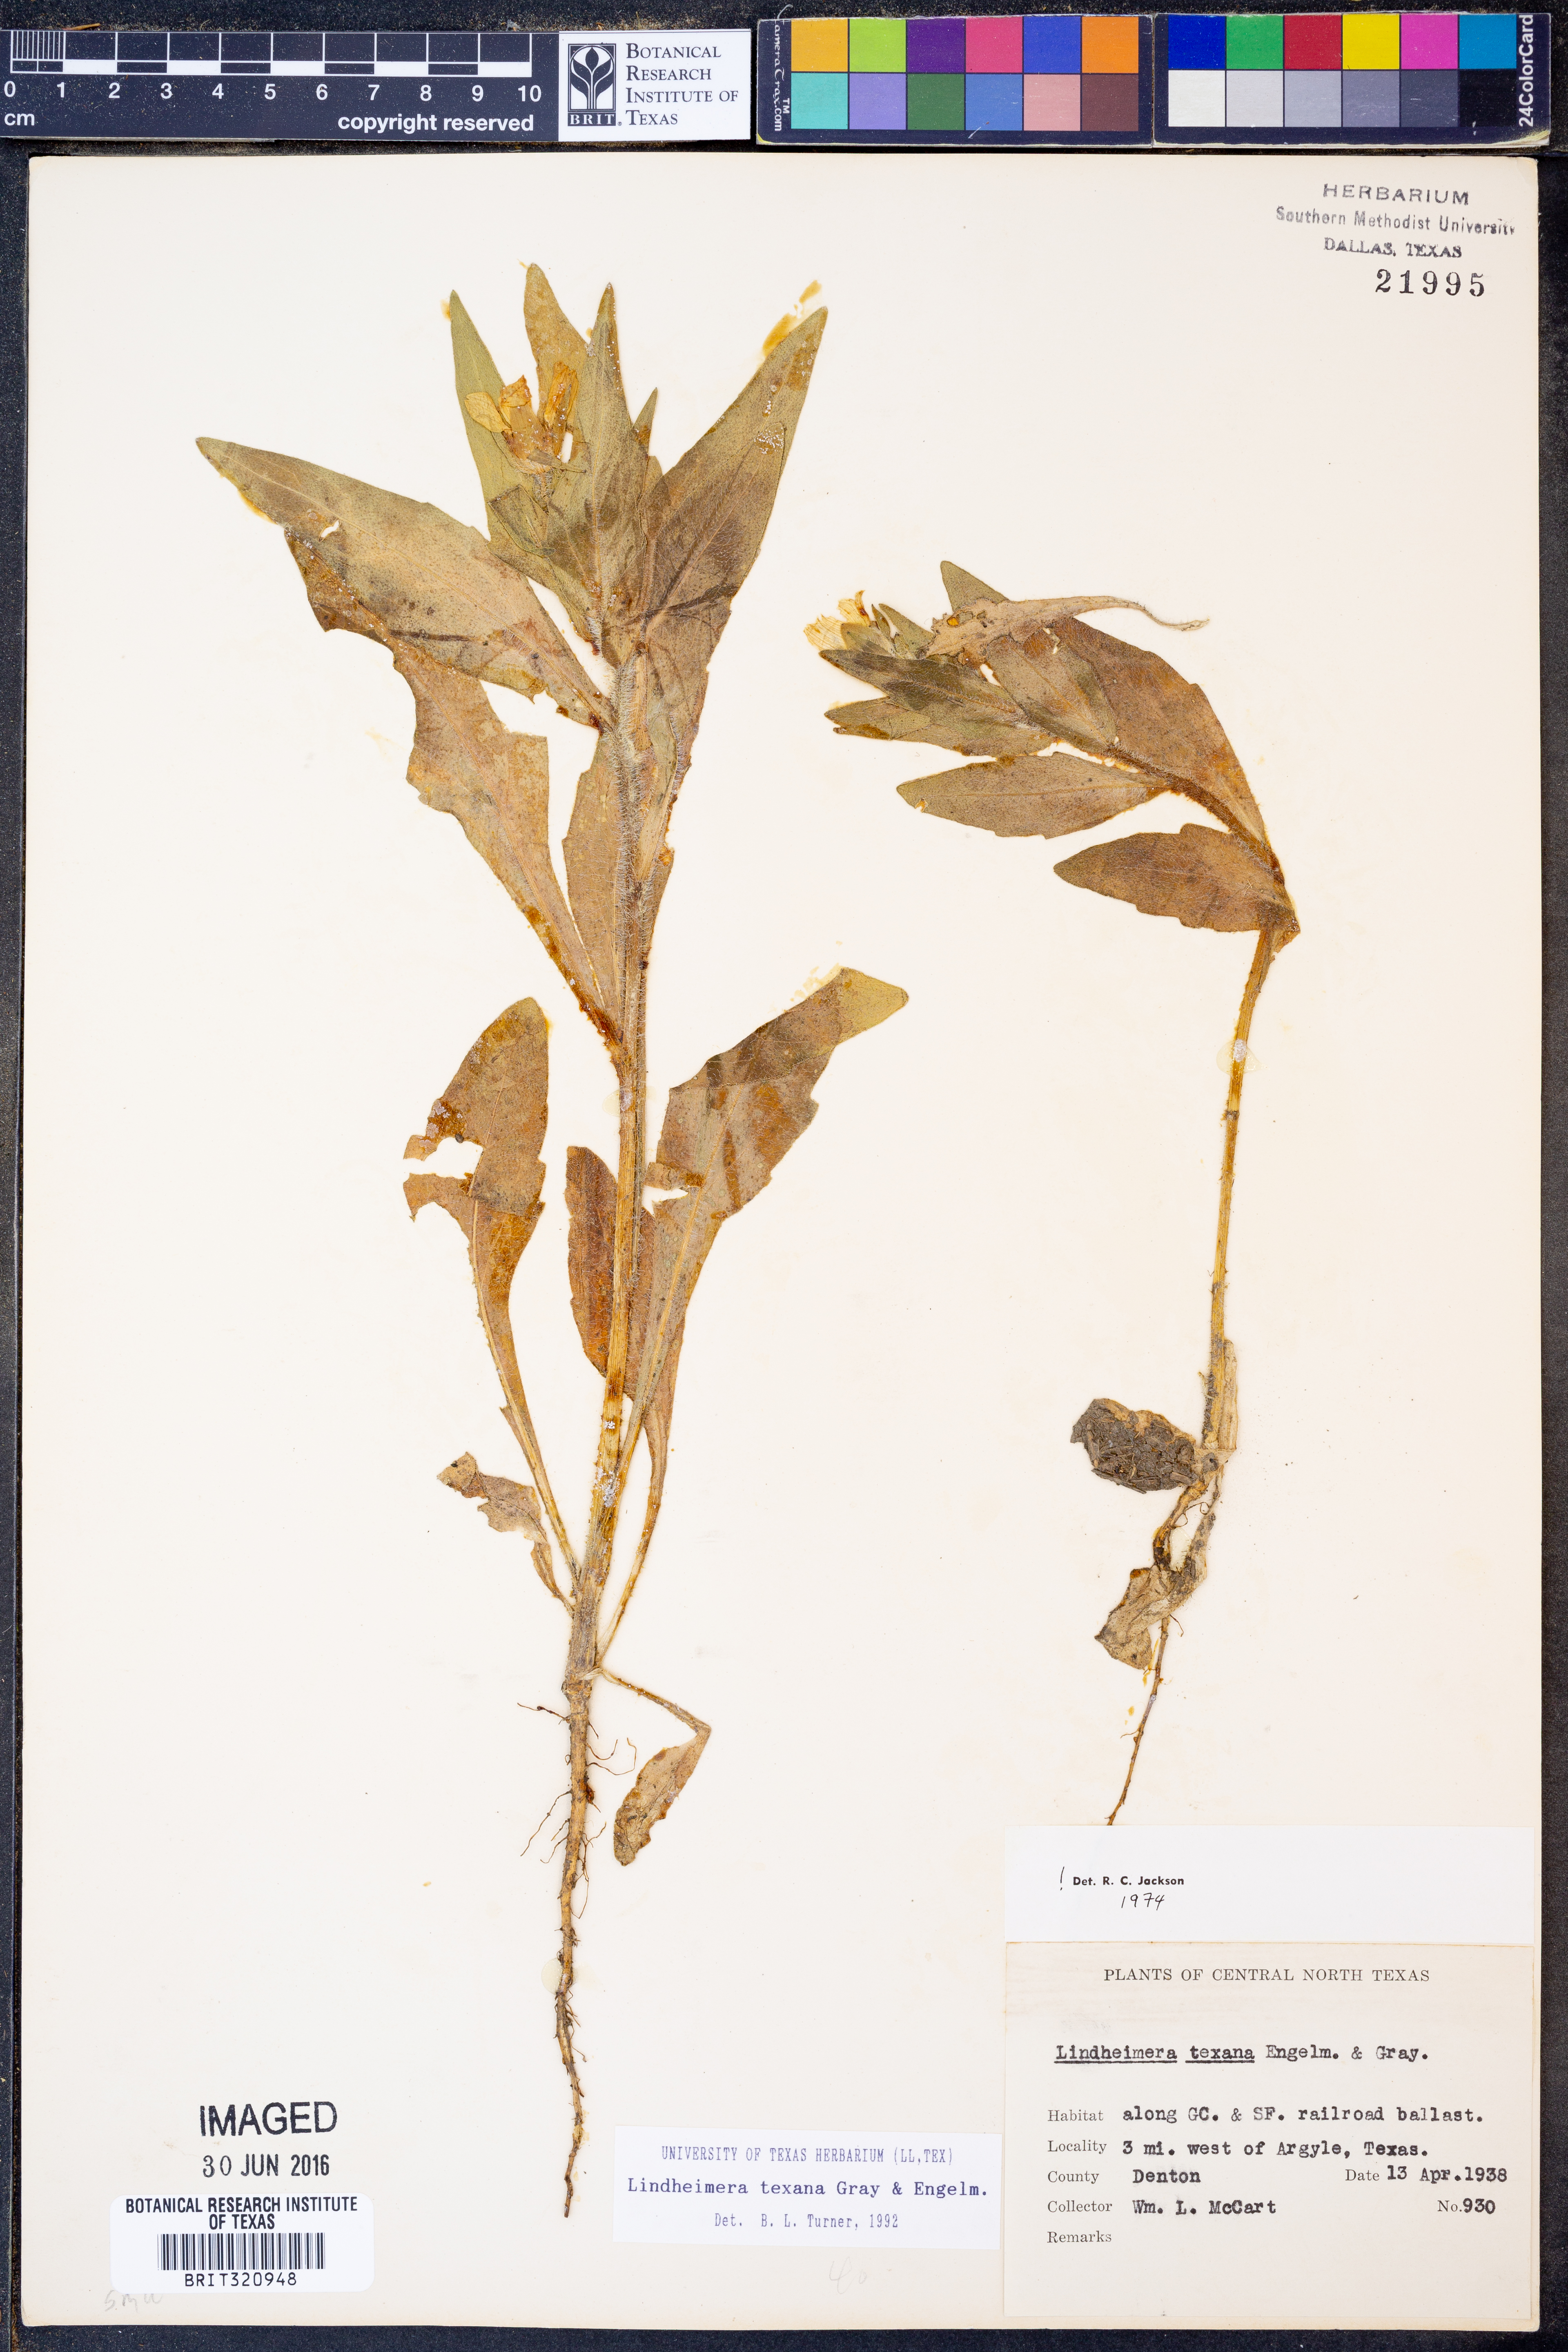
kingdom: Plantae
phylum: Tracheophyta
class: Magnoliopsida
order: Asterales
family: Asteraceae
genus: Lindheimera
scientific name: Lindheimera texana
